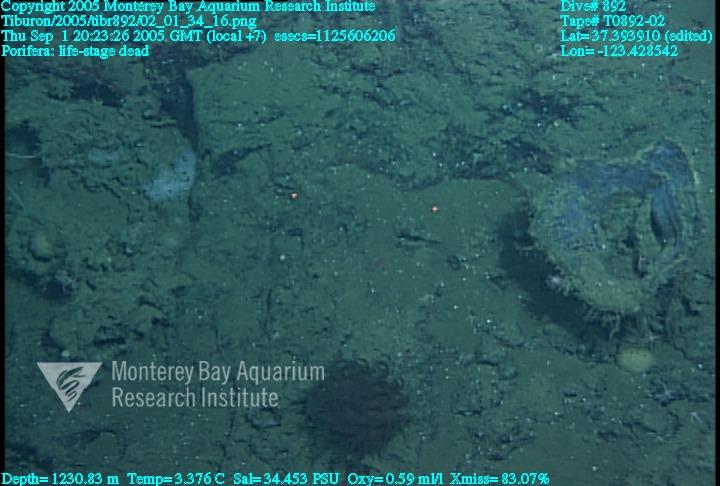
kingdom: Animalia
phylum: Porifera
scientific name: Porifera
